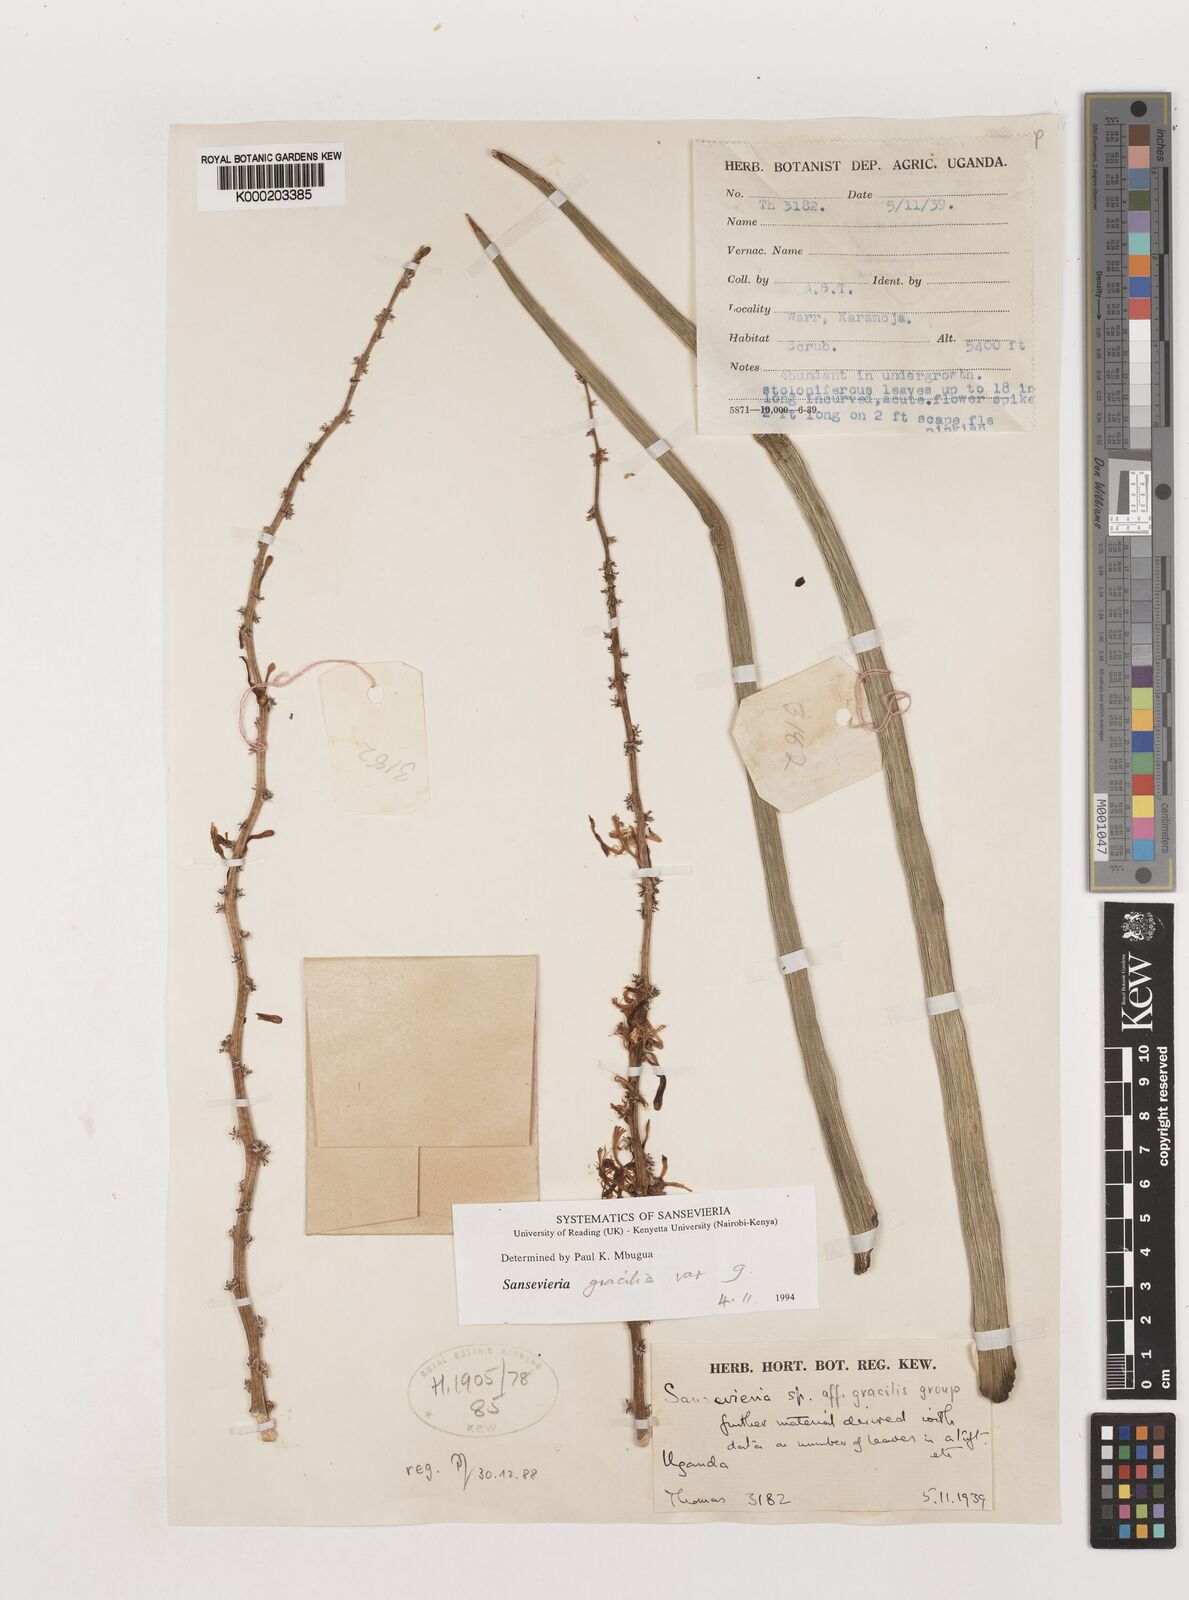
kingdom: Plantae
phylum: Tracheophyta
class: Liliopsida
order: Asparagales
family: Asparagaceae
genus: Dracaena
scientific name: Dracaena serpenta
